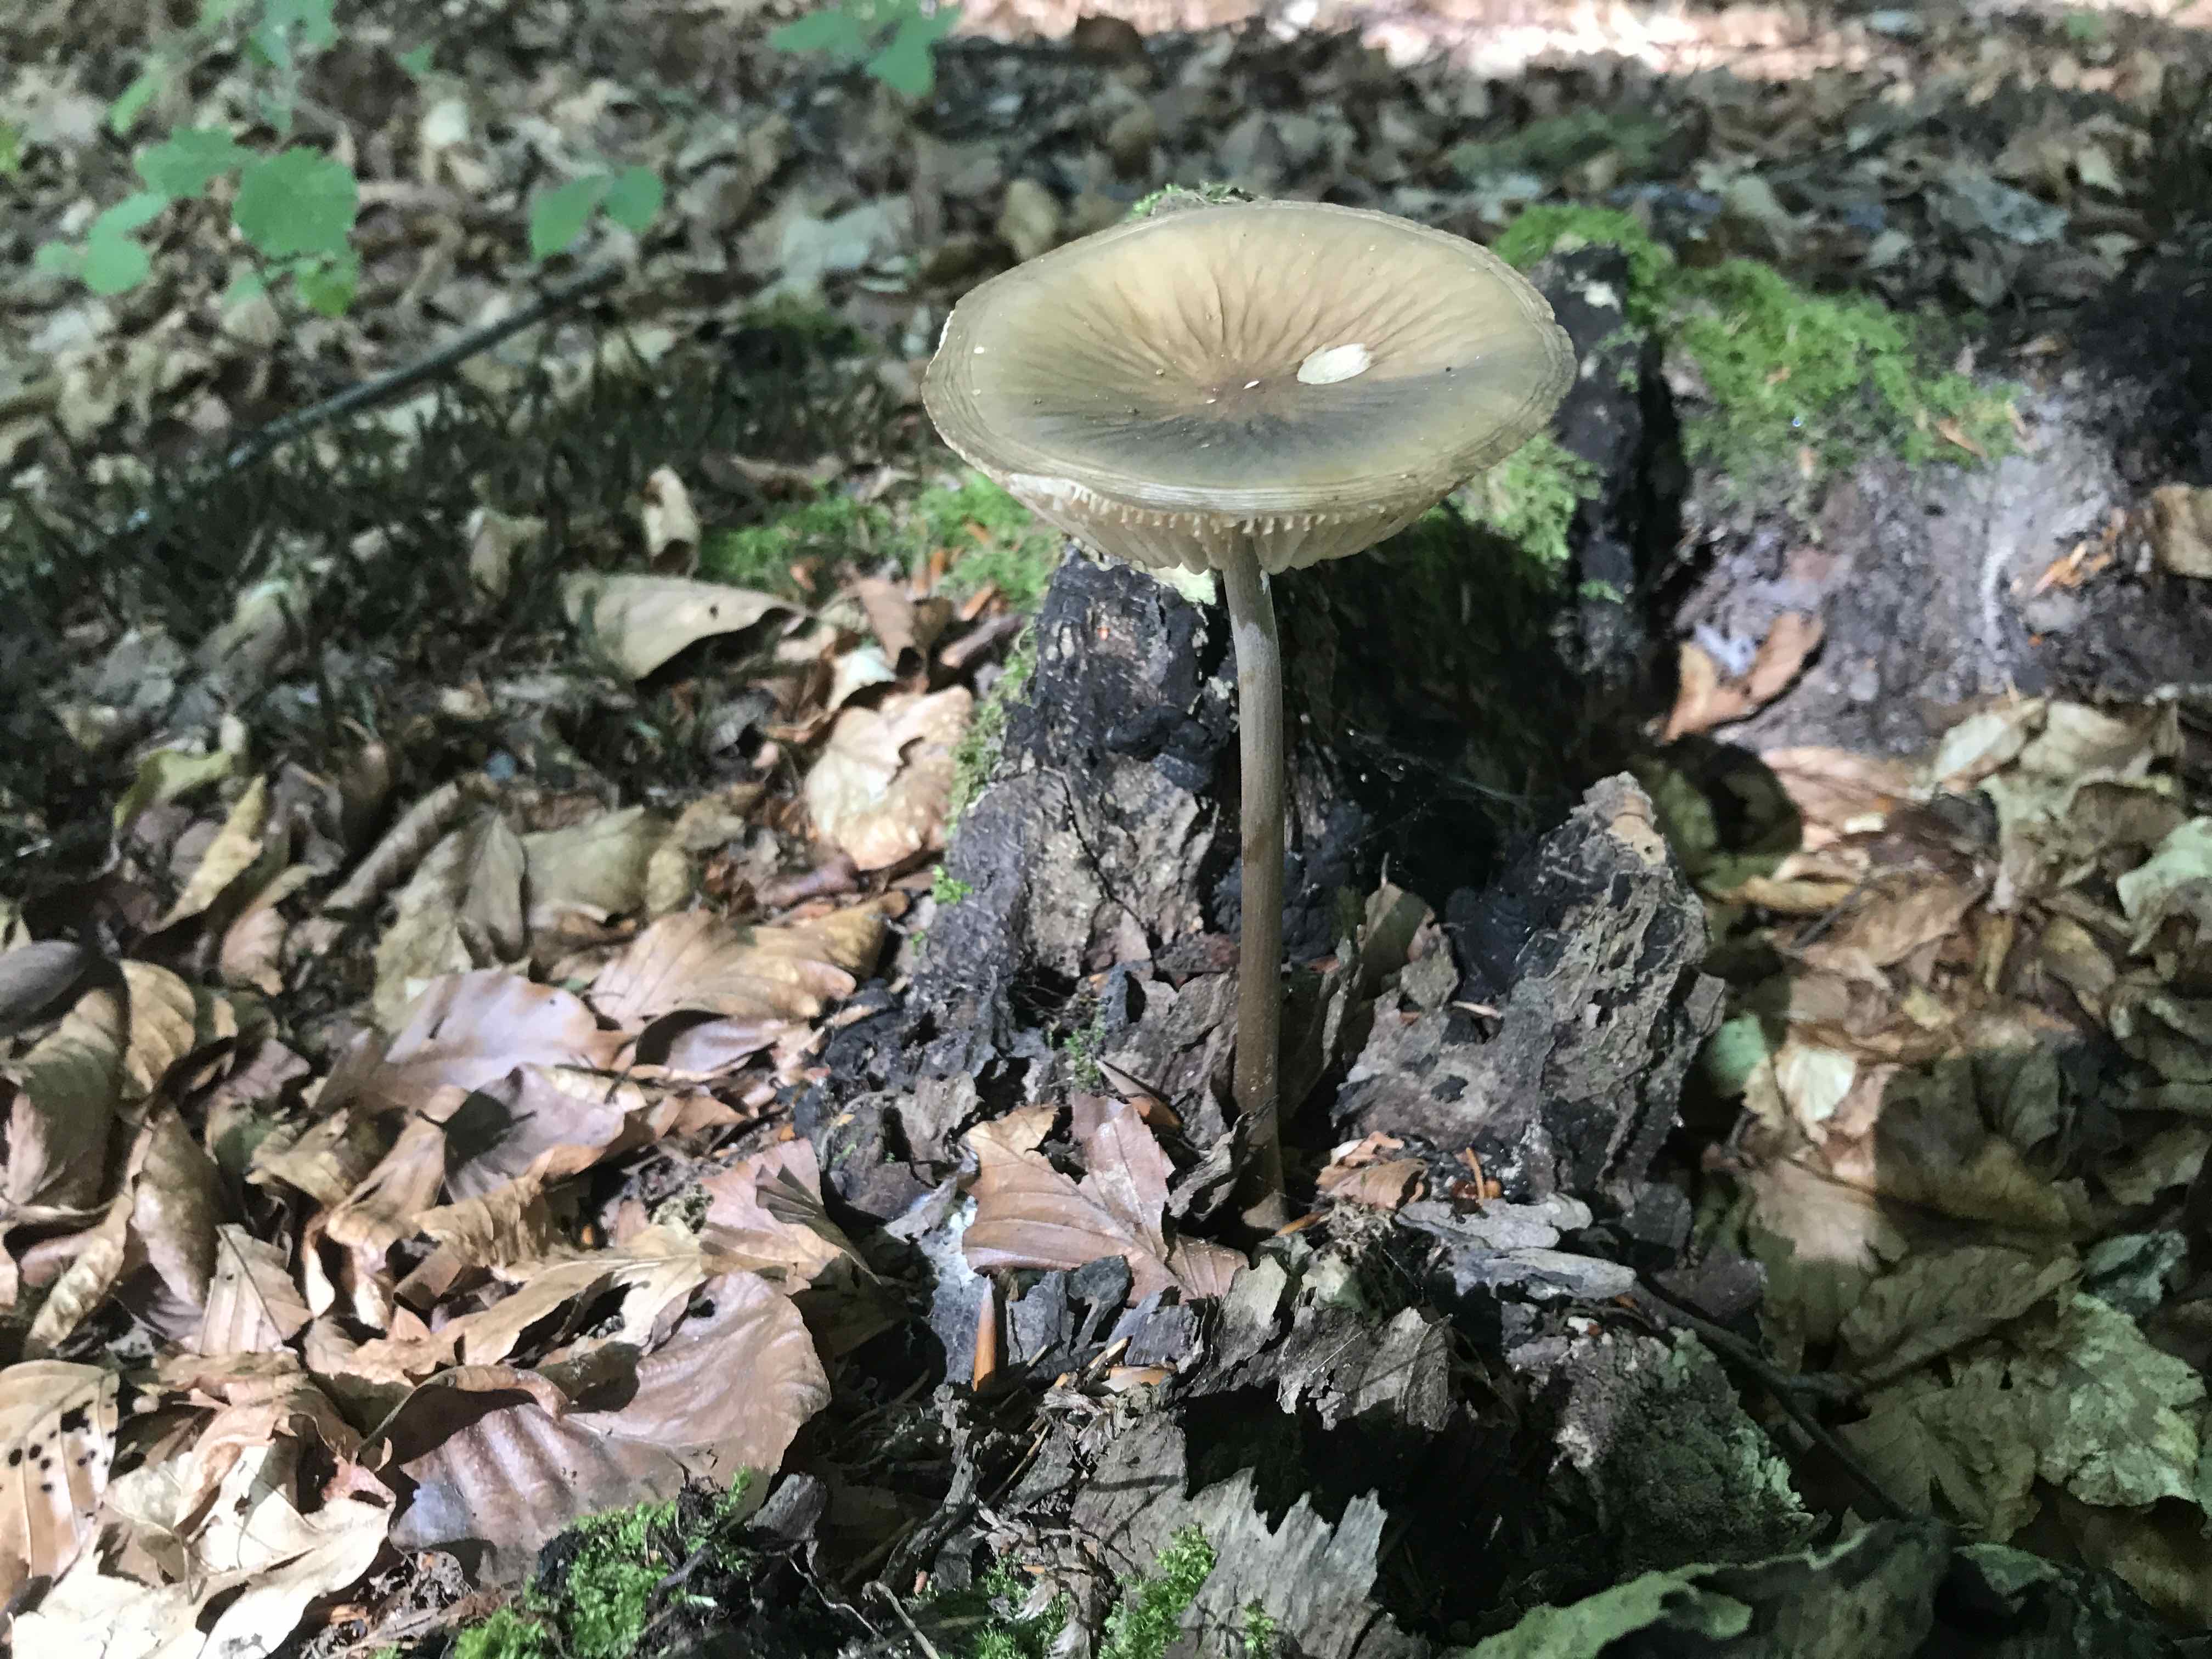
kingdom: Fungi
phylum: Basidiomycota
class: Agaricomycetes
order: Agaricales
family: Physalacriaceae
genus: Hymenopellis
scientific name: Hymenopellis radicata
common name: almindelig pælerodshat
